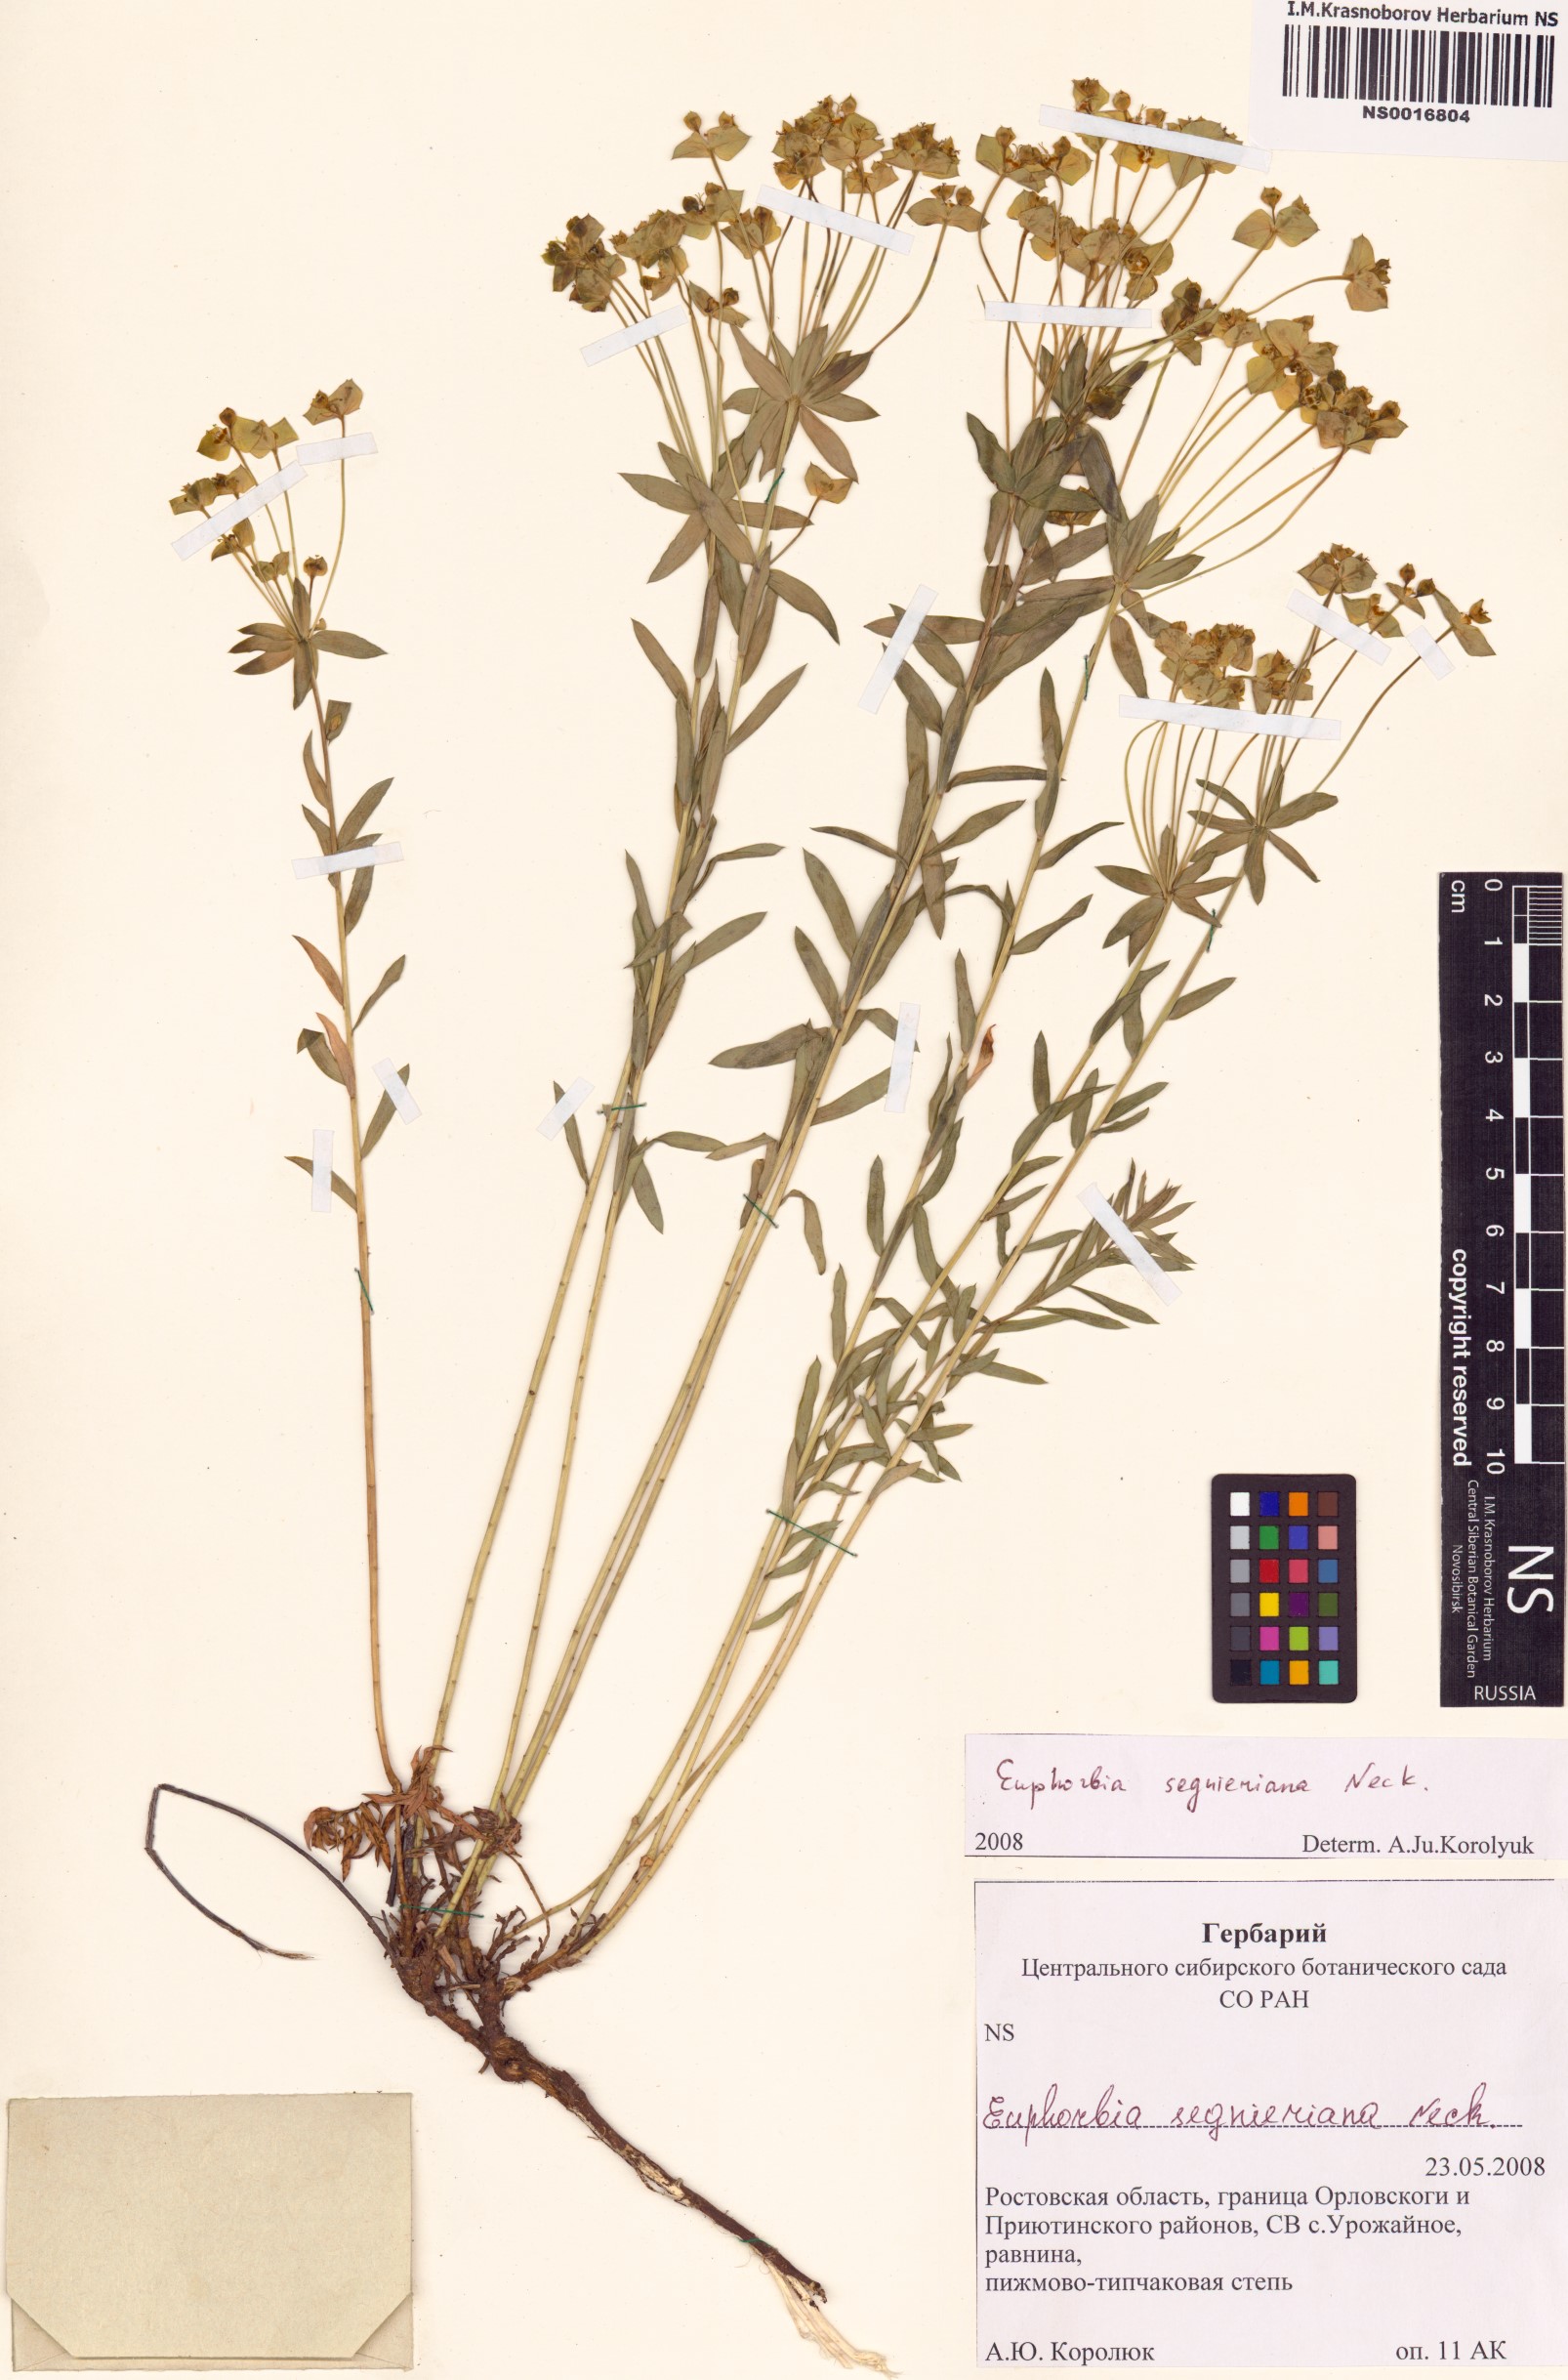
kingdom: Plantae
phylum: Tracheophyta
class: Magnoliopsida
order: Malpighiales
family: Euphorbiaceae
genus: Euphorbia
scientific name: Euphorbia seguieriana
